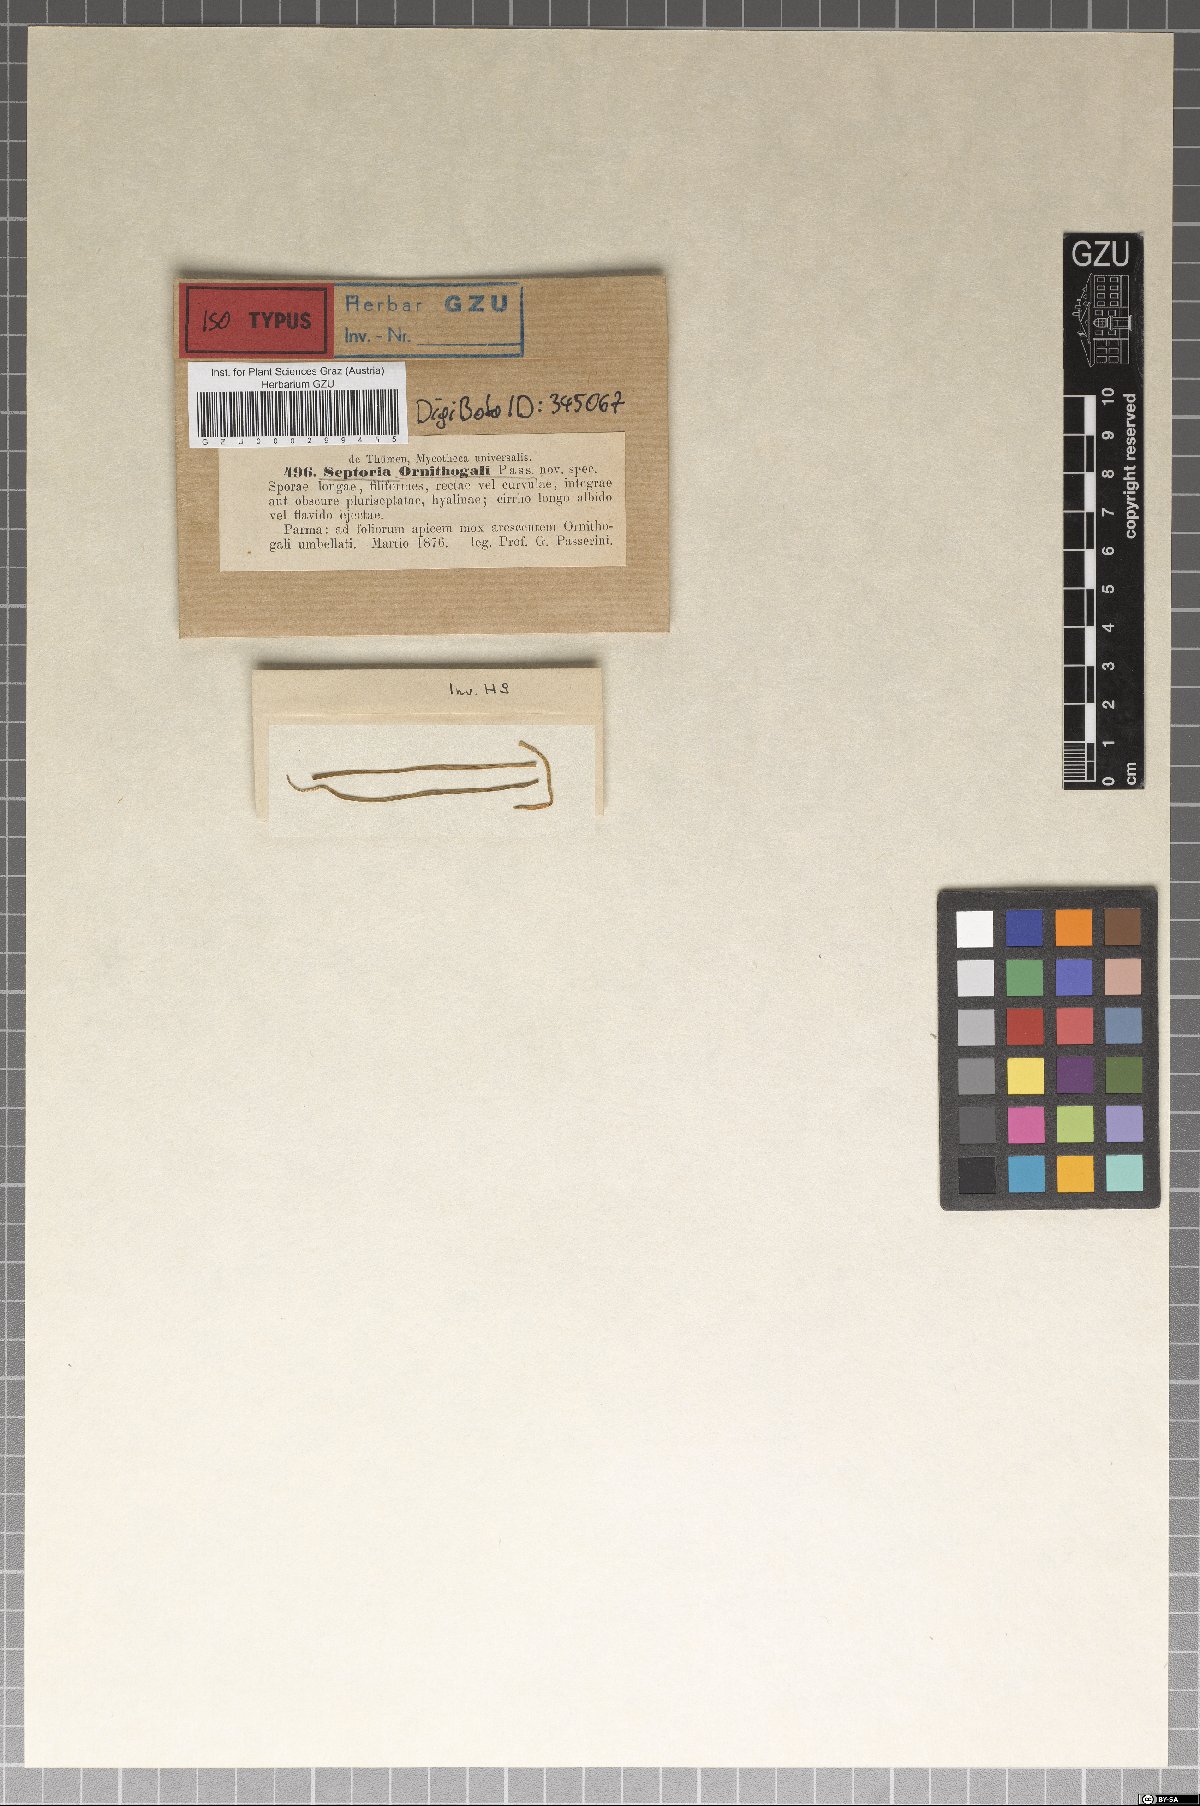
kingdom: Fungi
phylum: Ascomycota
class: Dothideomycetes
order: Capnodiales
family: Mycosphaerellaceae
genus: Septoria
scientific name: Septoria ornithogali
